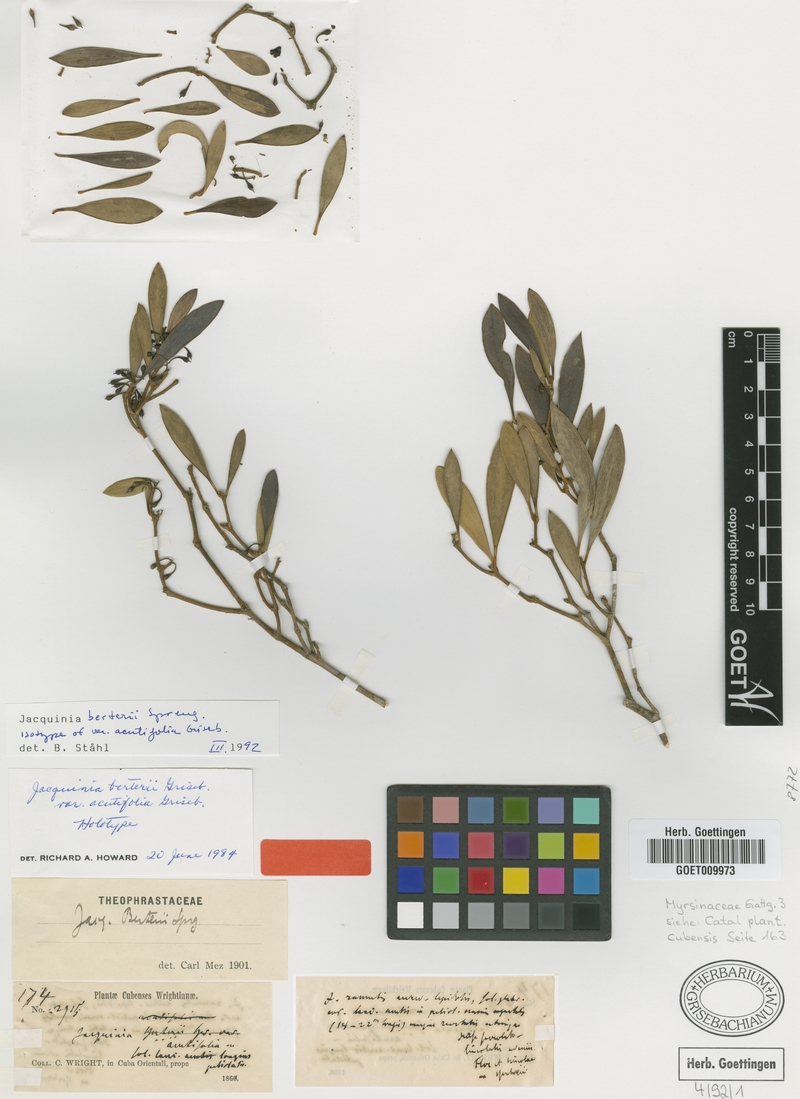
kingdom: Plantae
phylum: Tracheophyta
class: Magnoliopsida
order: Ericales
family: Primulaceae
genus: Jacquinia
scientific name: Jacquinia berteroi
